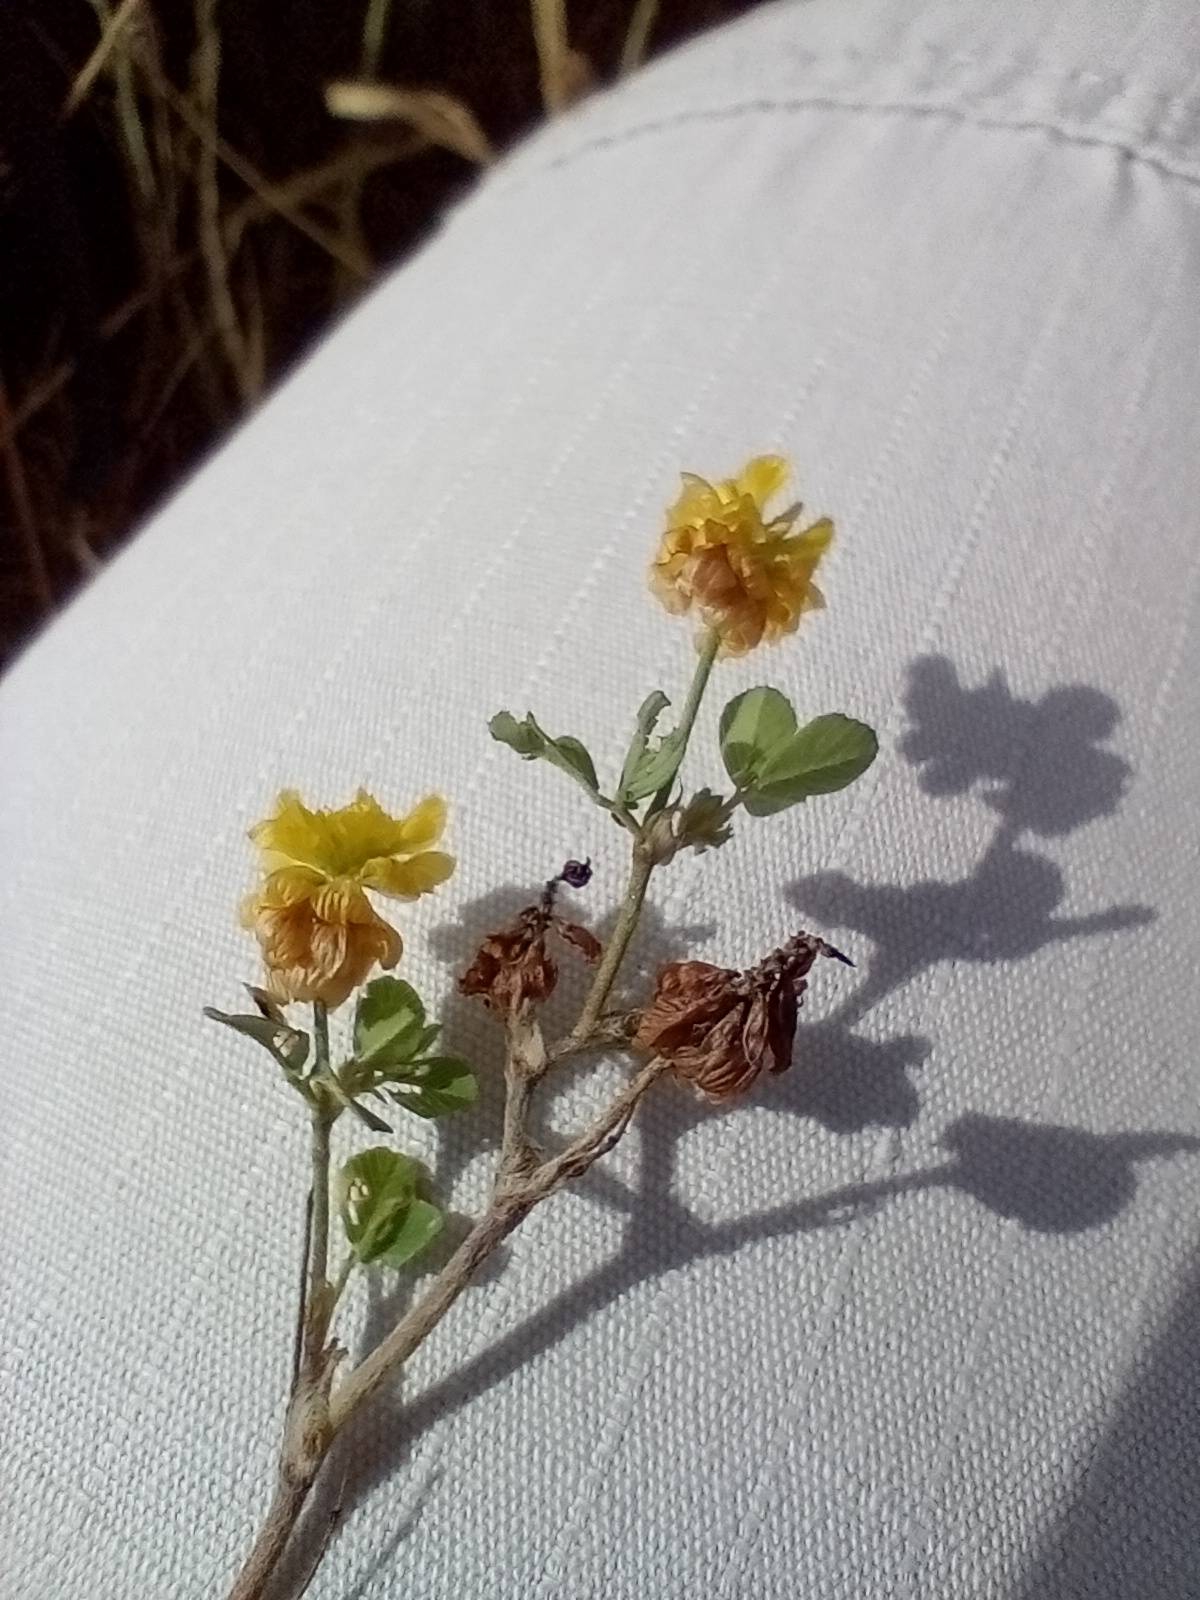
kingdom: Plantae
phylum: Tracheophyta
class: Magnoliopsida
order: Fabales
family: Fabaceae
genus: Trifolium
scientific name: Trifolium campestre
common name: Gul kløver
